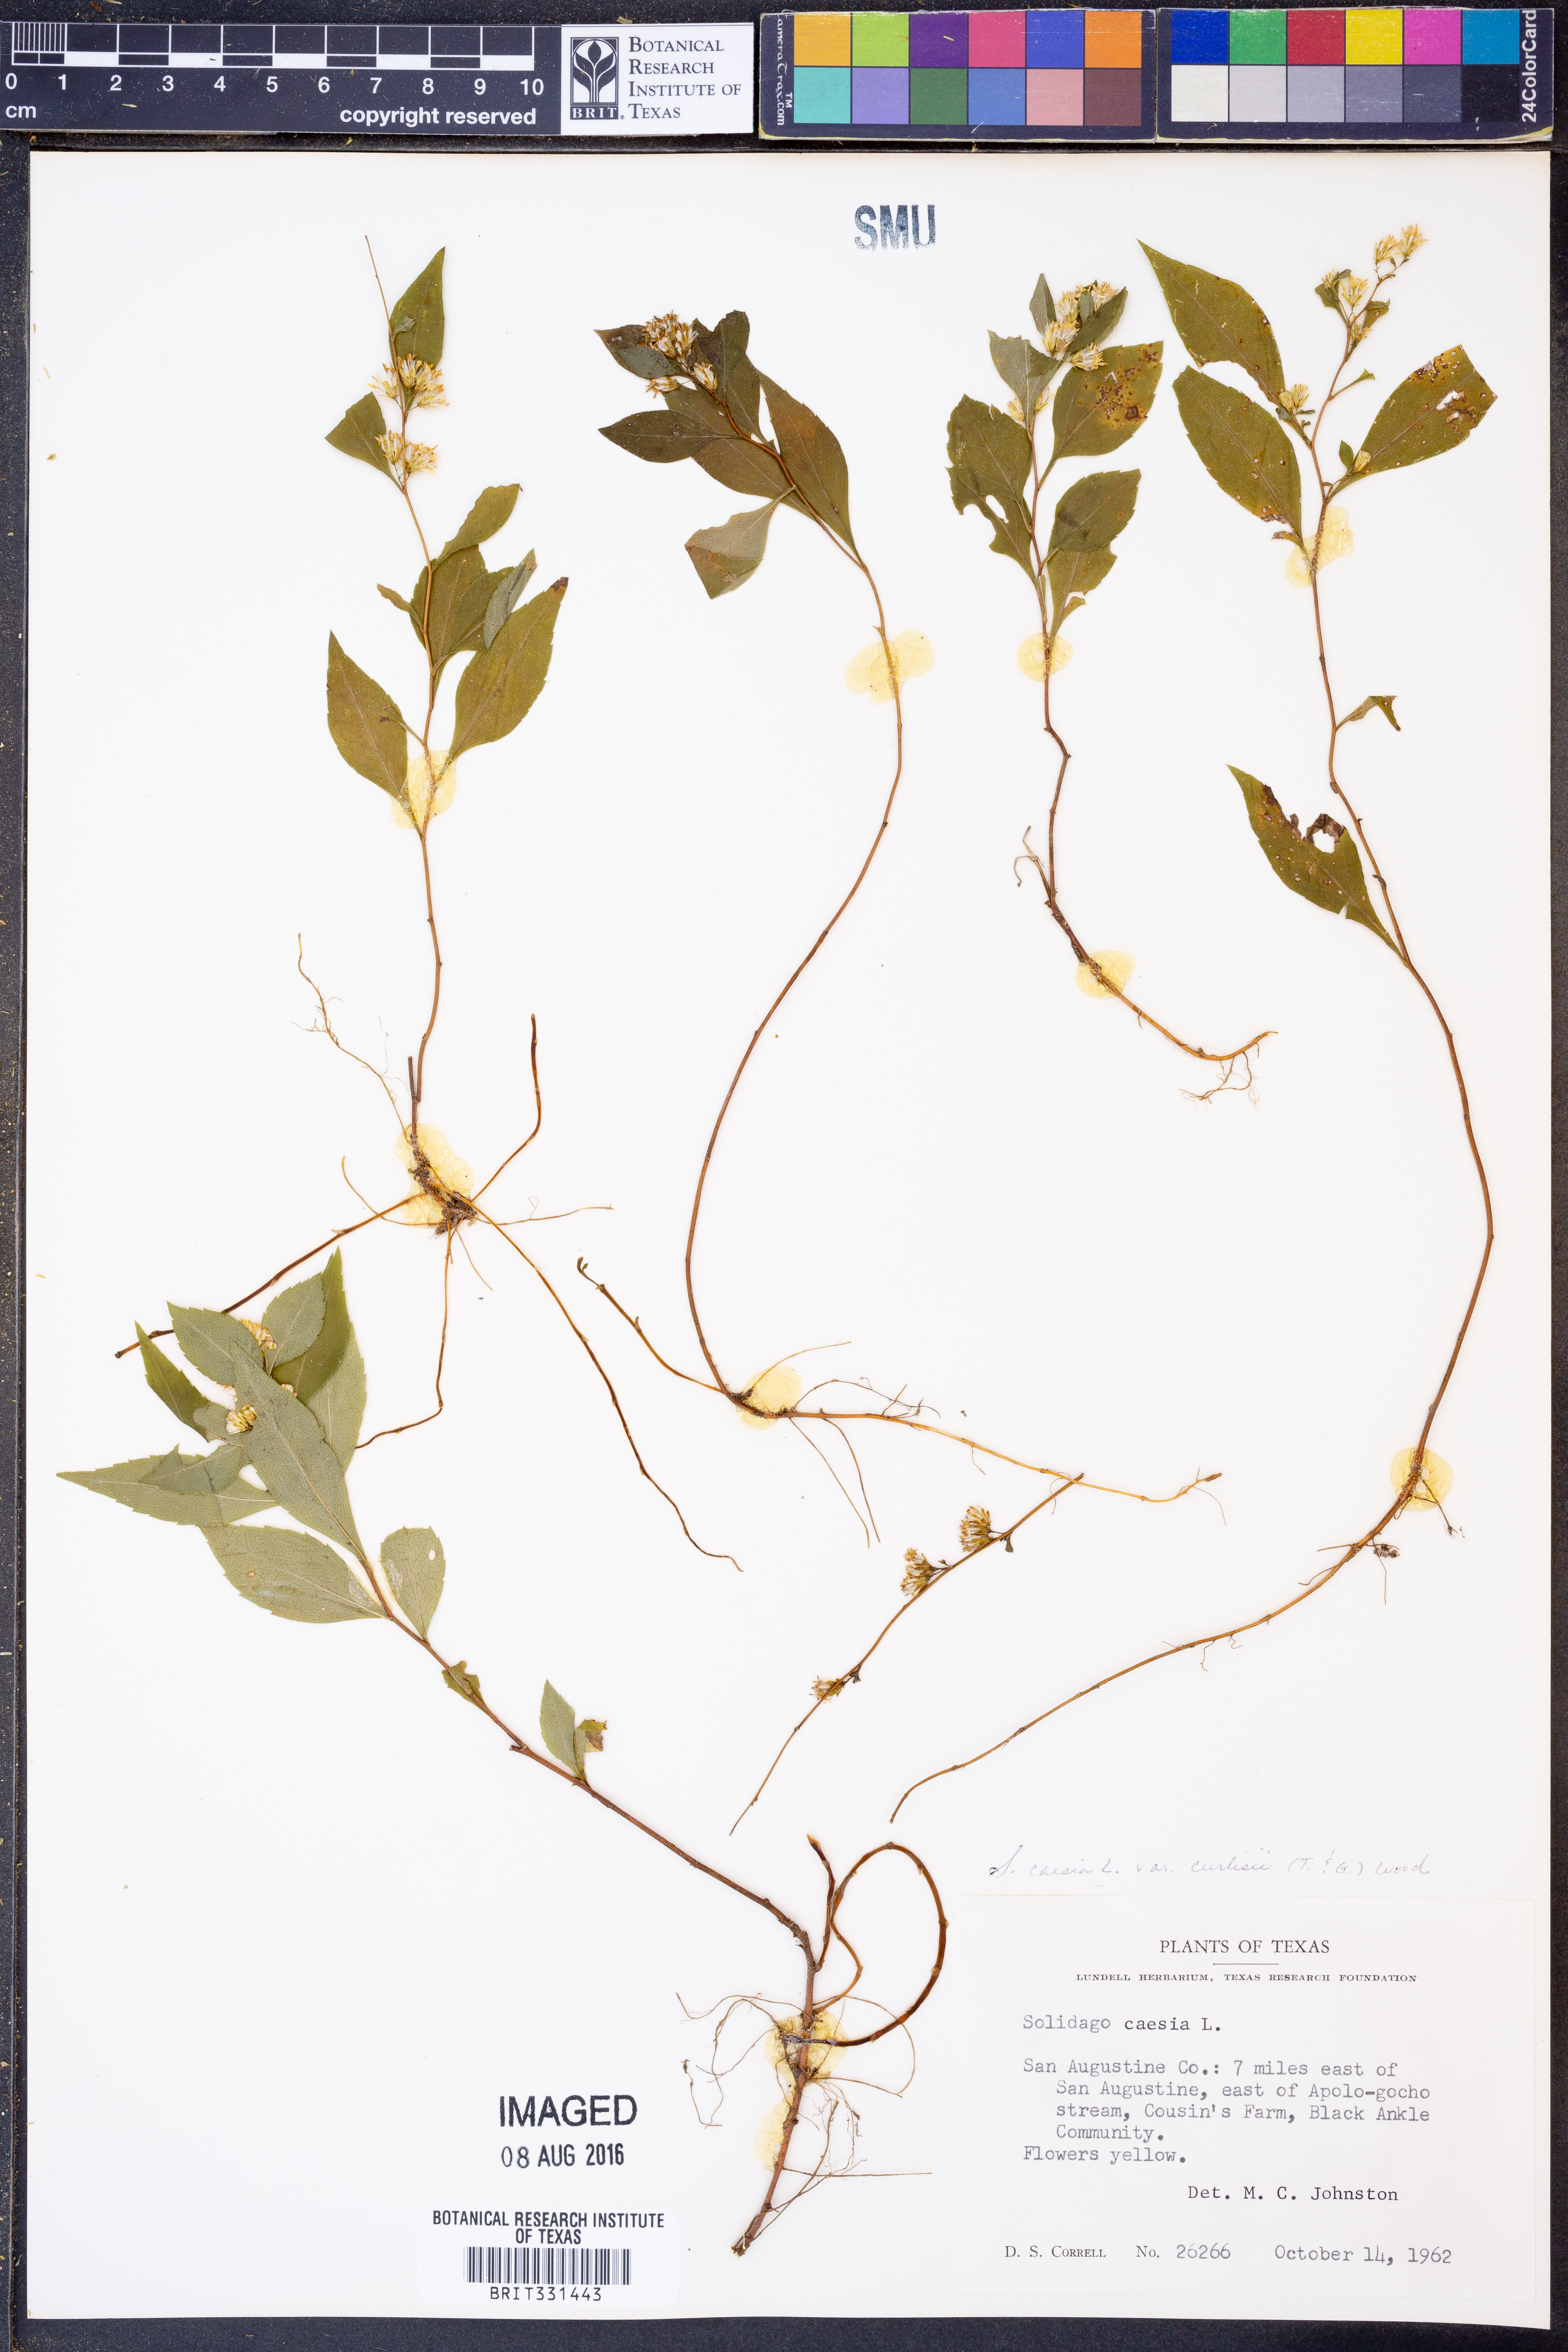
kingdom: Plantae
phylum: Tracheophyta
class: Magnoliopsida
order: Asterales
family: Asteraceae
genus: Solidago
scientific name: Solidago curtisii
